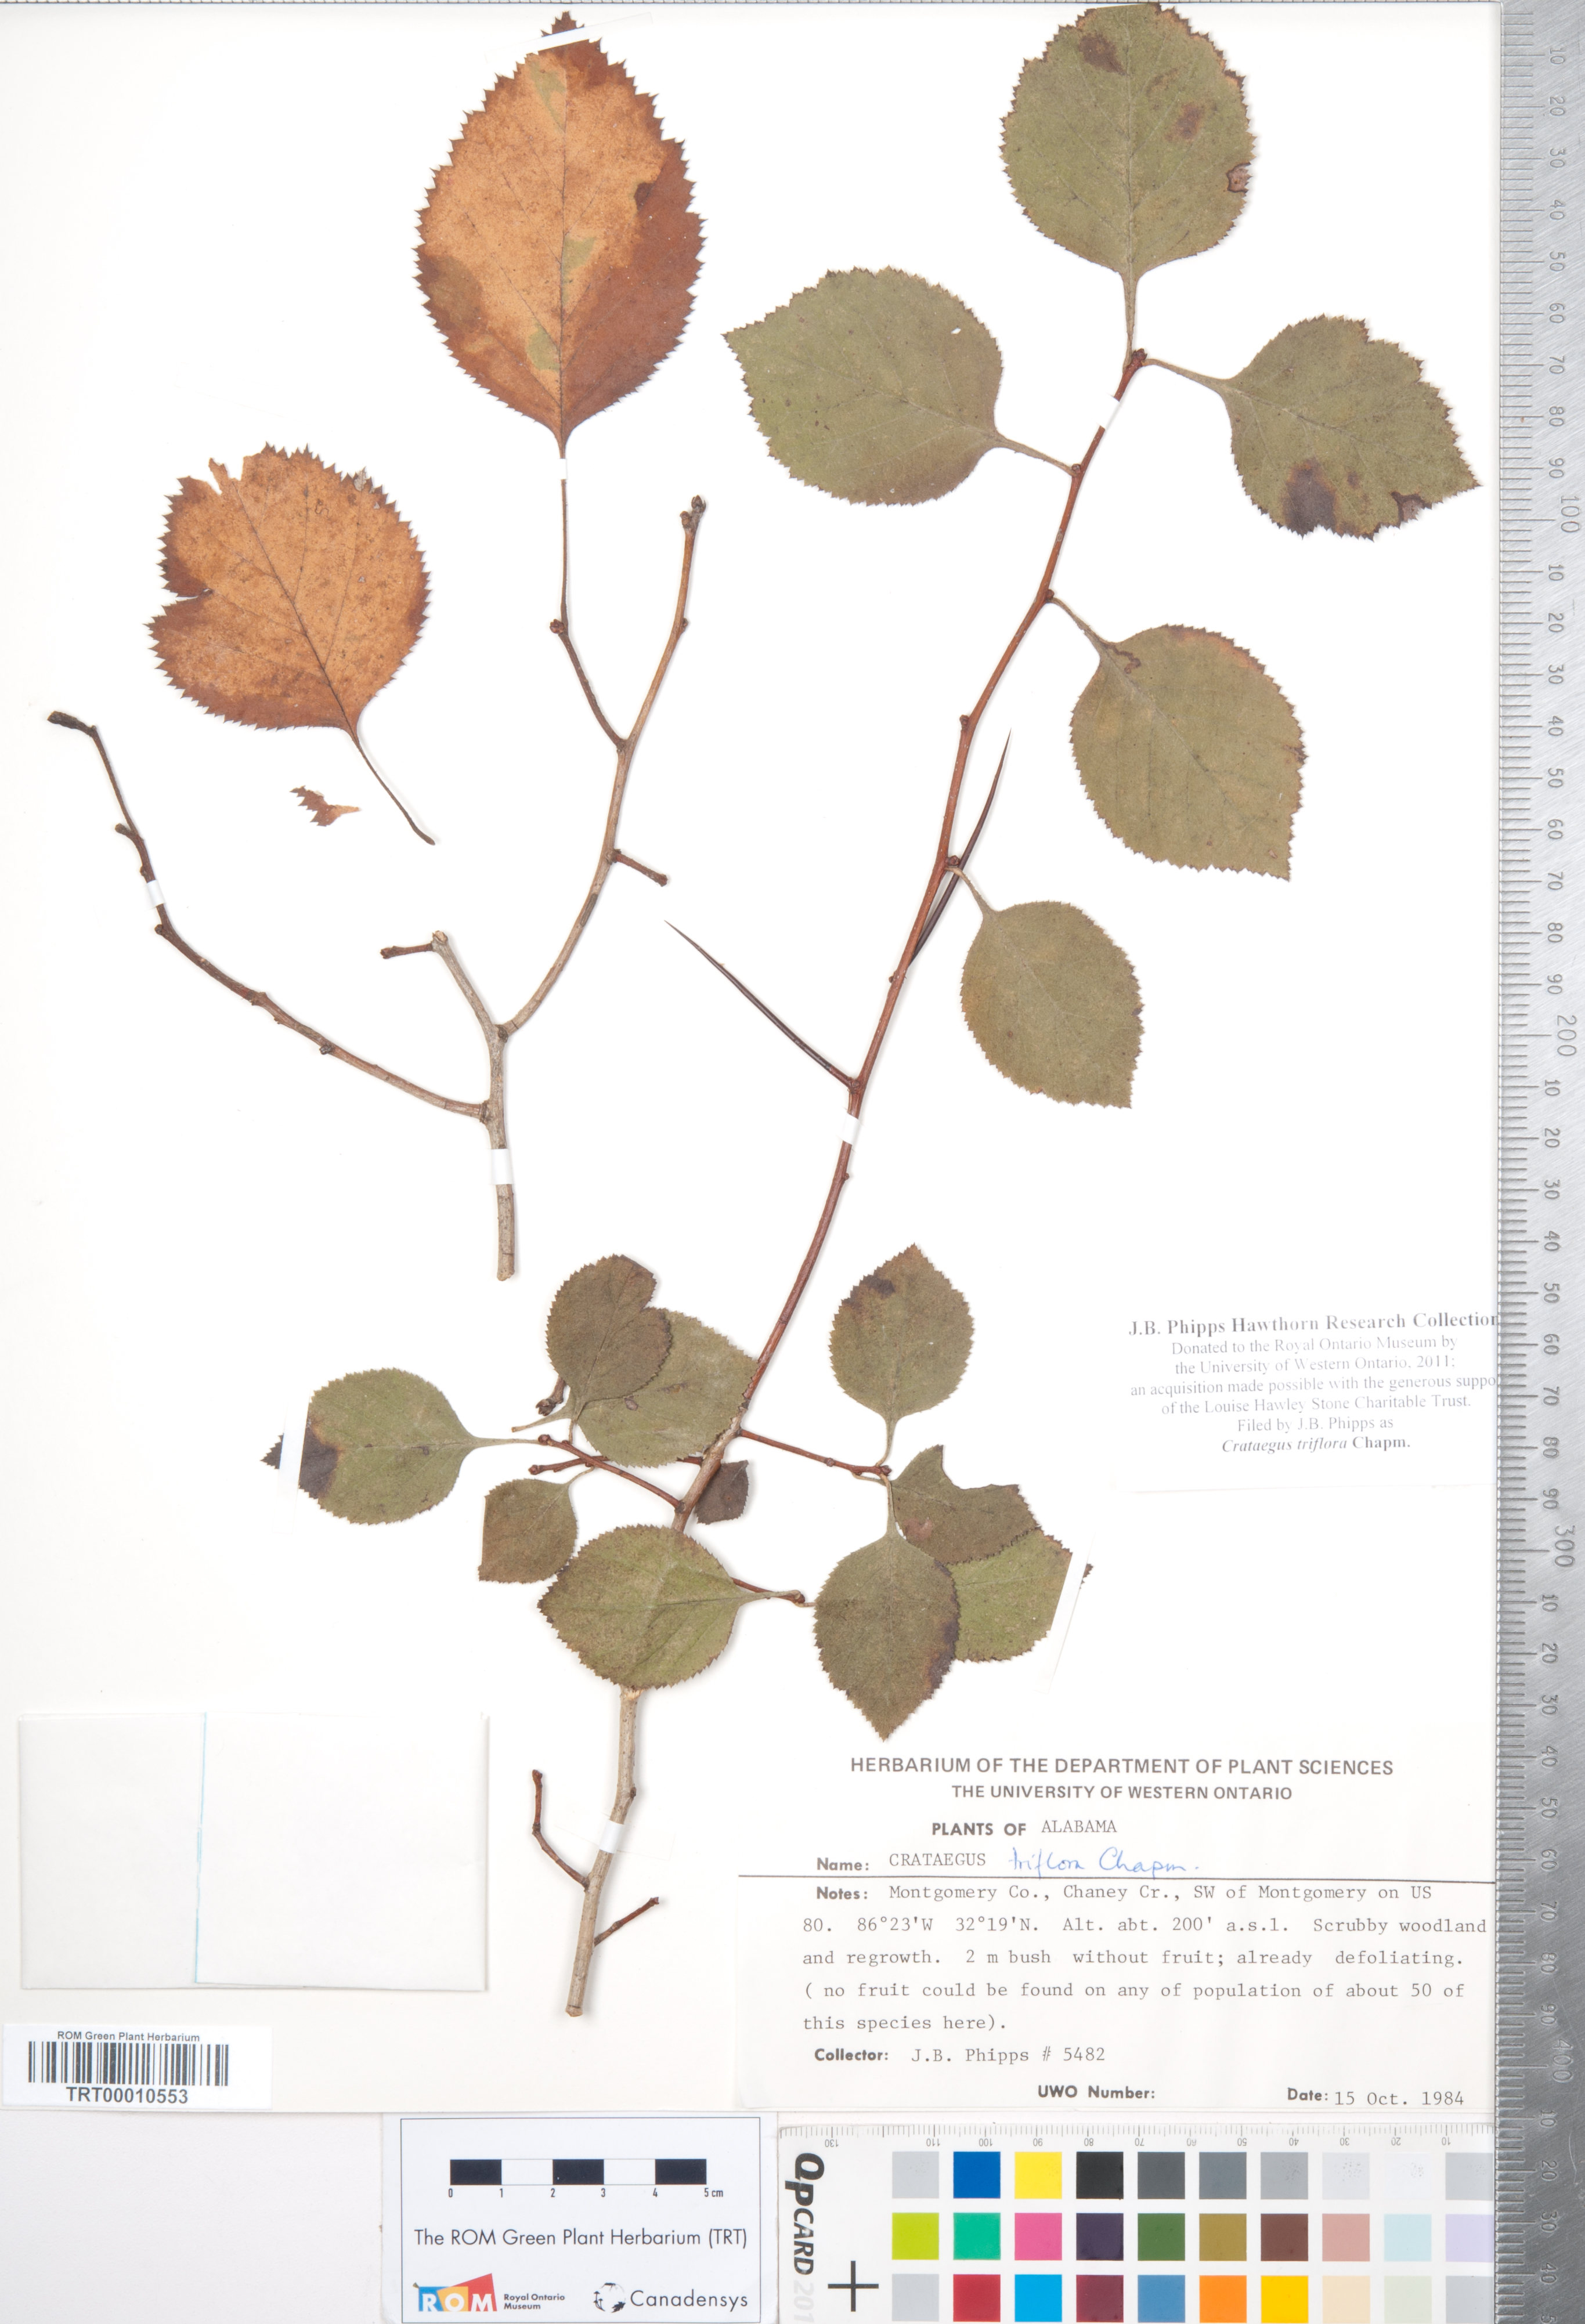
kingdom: Plantae
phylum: Tracheophyta
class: Magnoliopsida
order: Rosales
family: Rosaceae
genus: Crataegus
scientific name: Crataegus triflora
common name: Three-flower hawthorn
